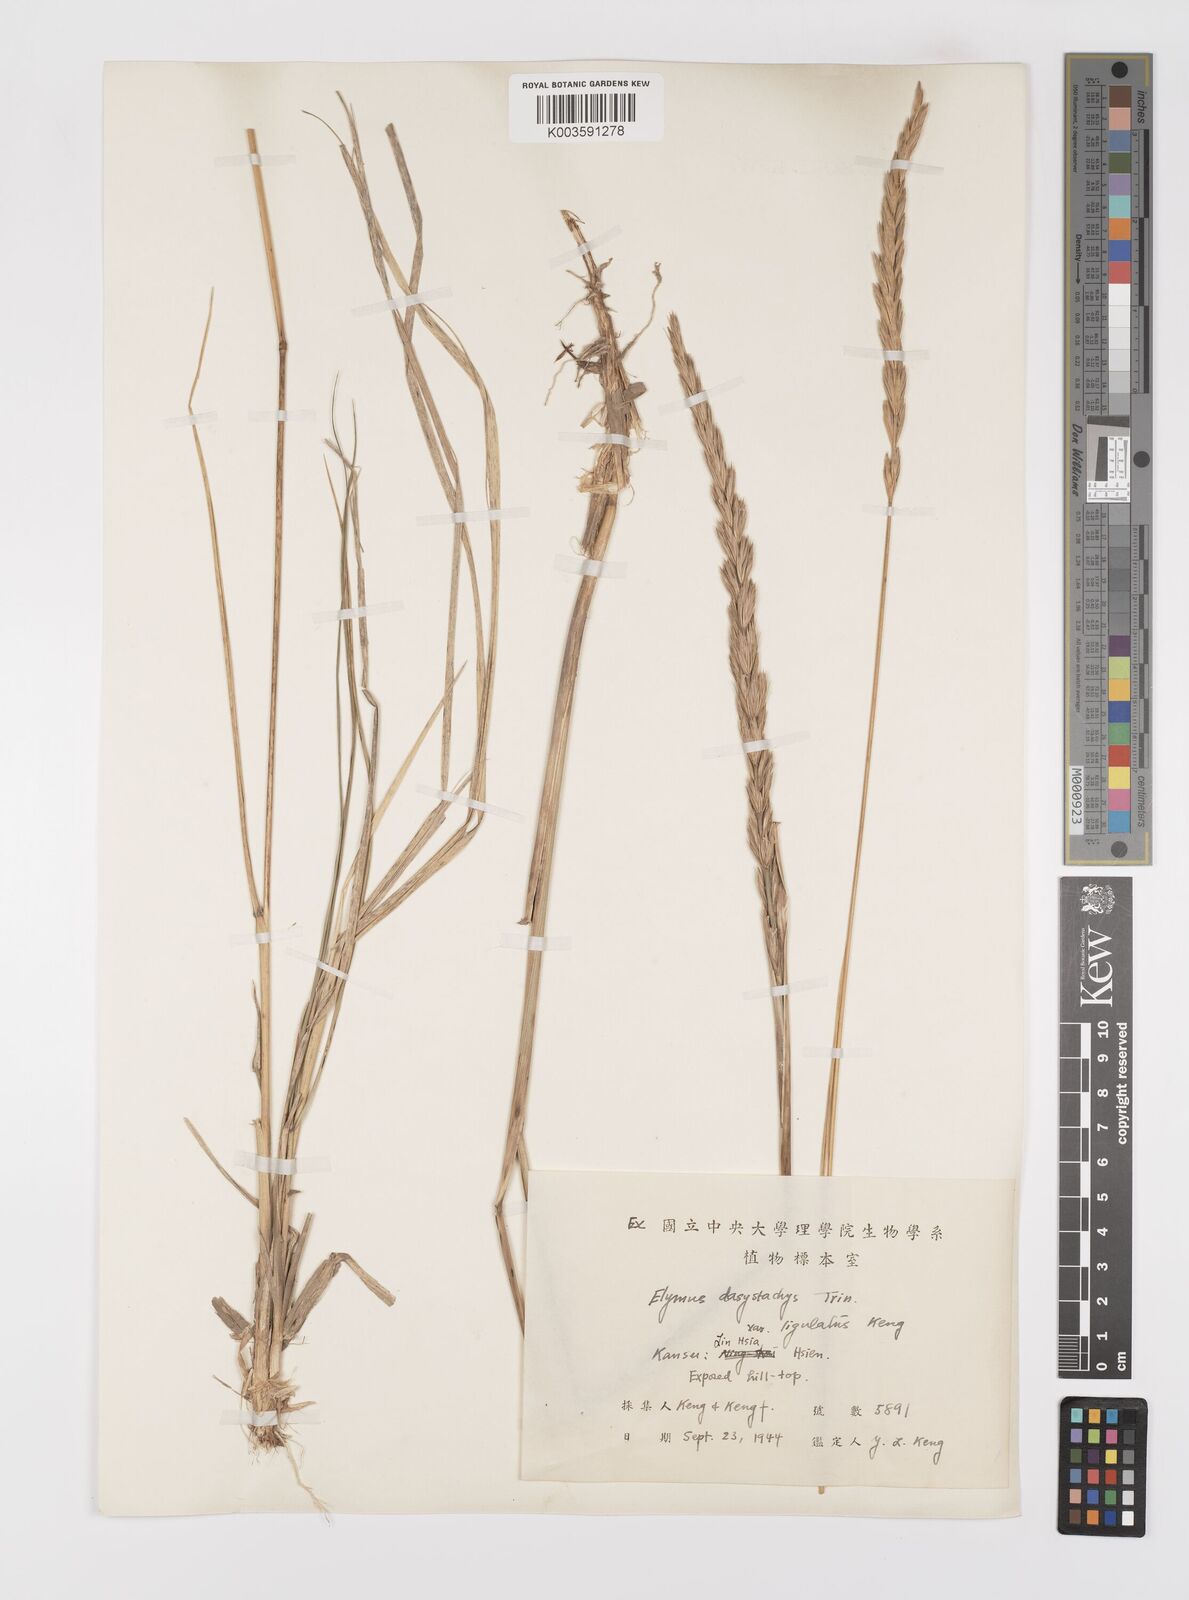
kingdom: Plantae
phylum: Tracheophyta
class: Liliopsida
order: Poales
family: Poaceae
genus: Leymus
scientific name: Leymus secalinus
